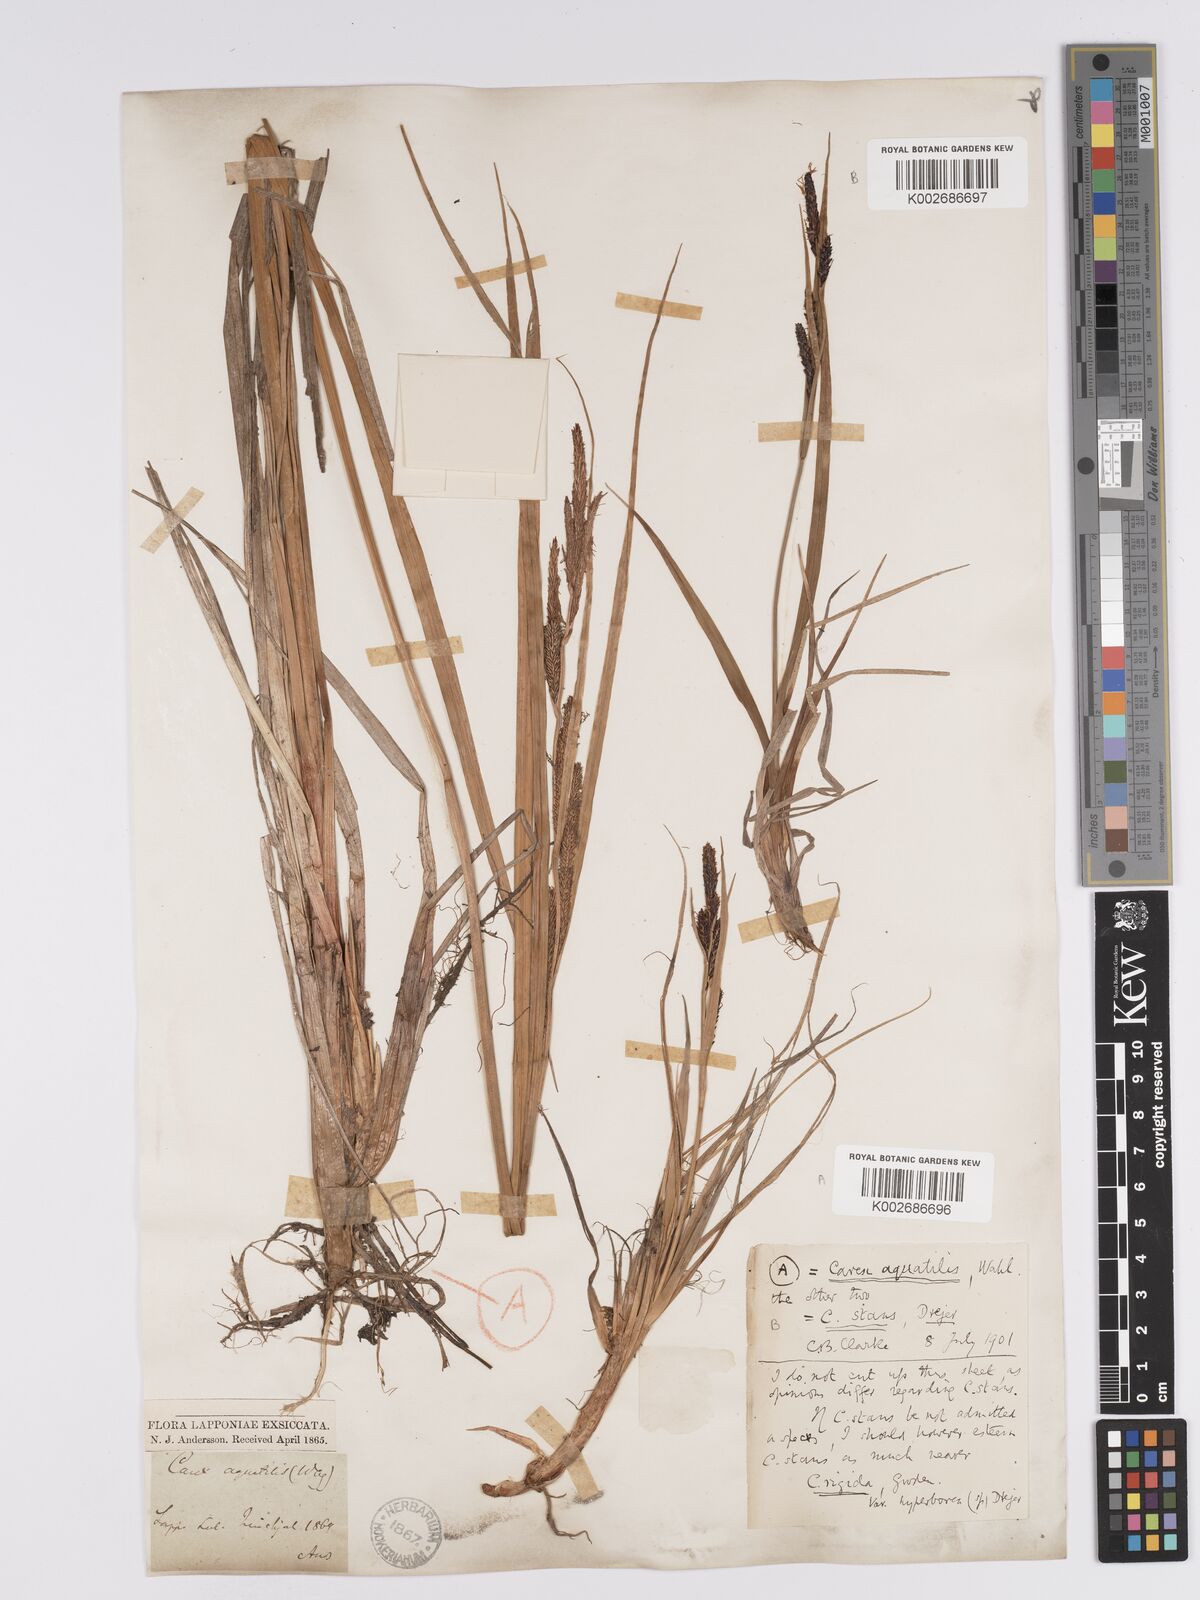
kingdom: Plantae
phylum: Tracheophyta
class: Liliopsida
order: Poales
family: Cyperaceae
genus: Carex
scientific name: Carex aquatilis
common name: Water sedge
